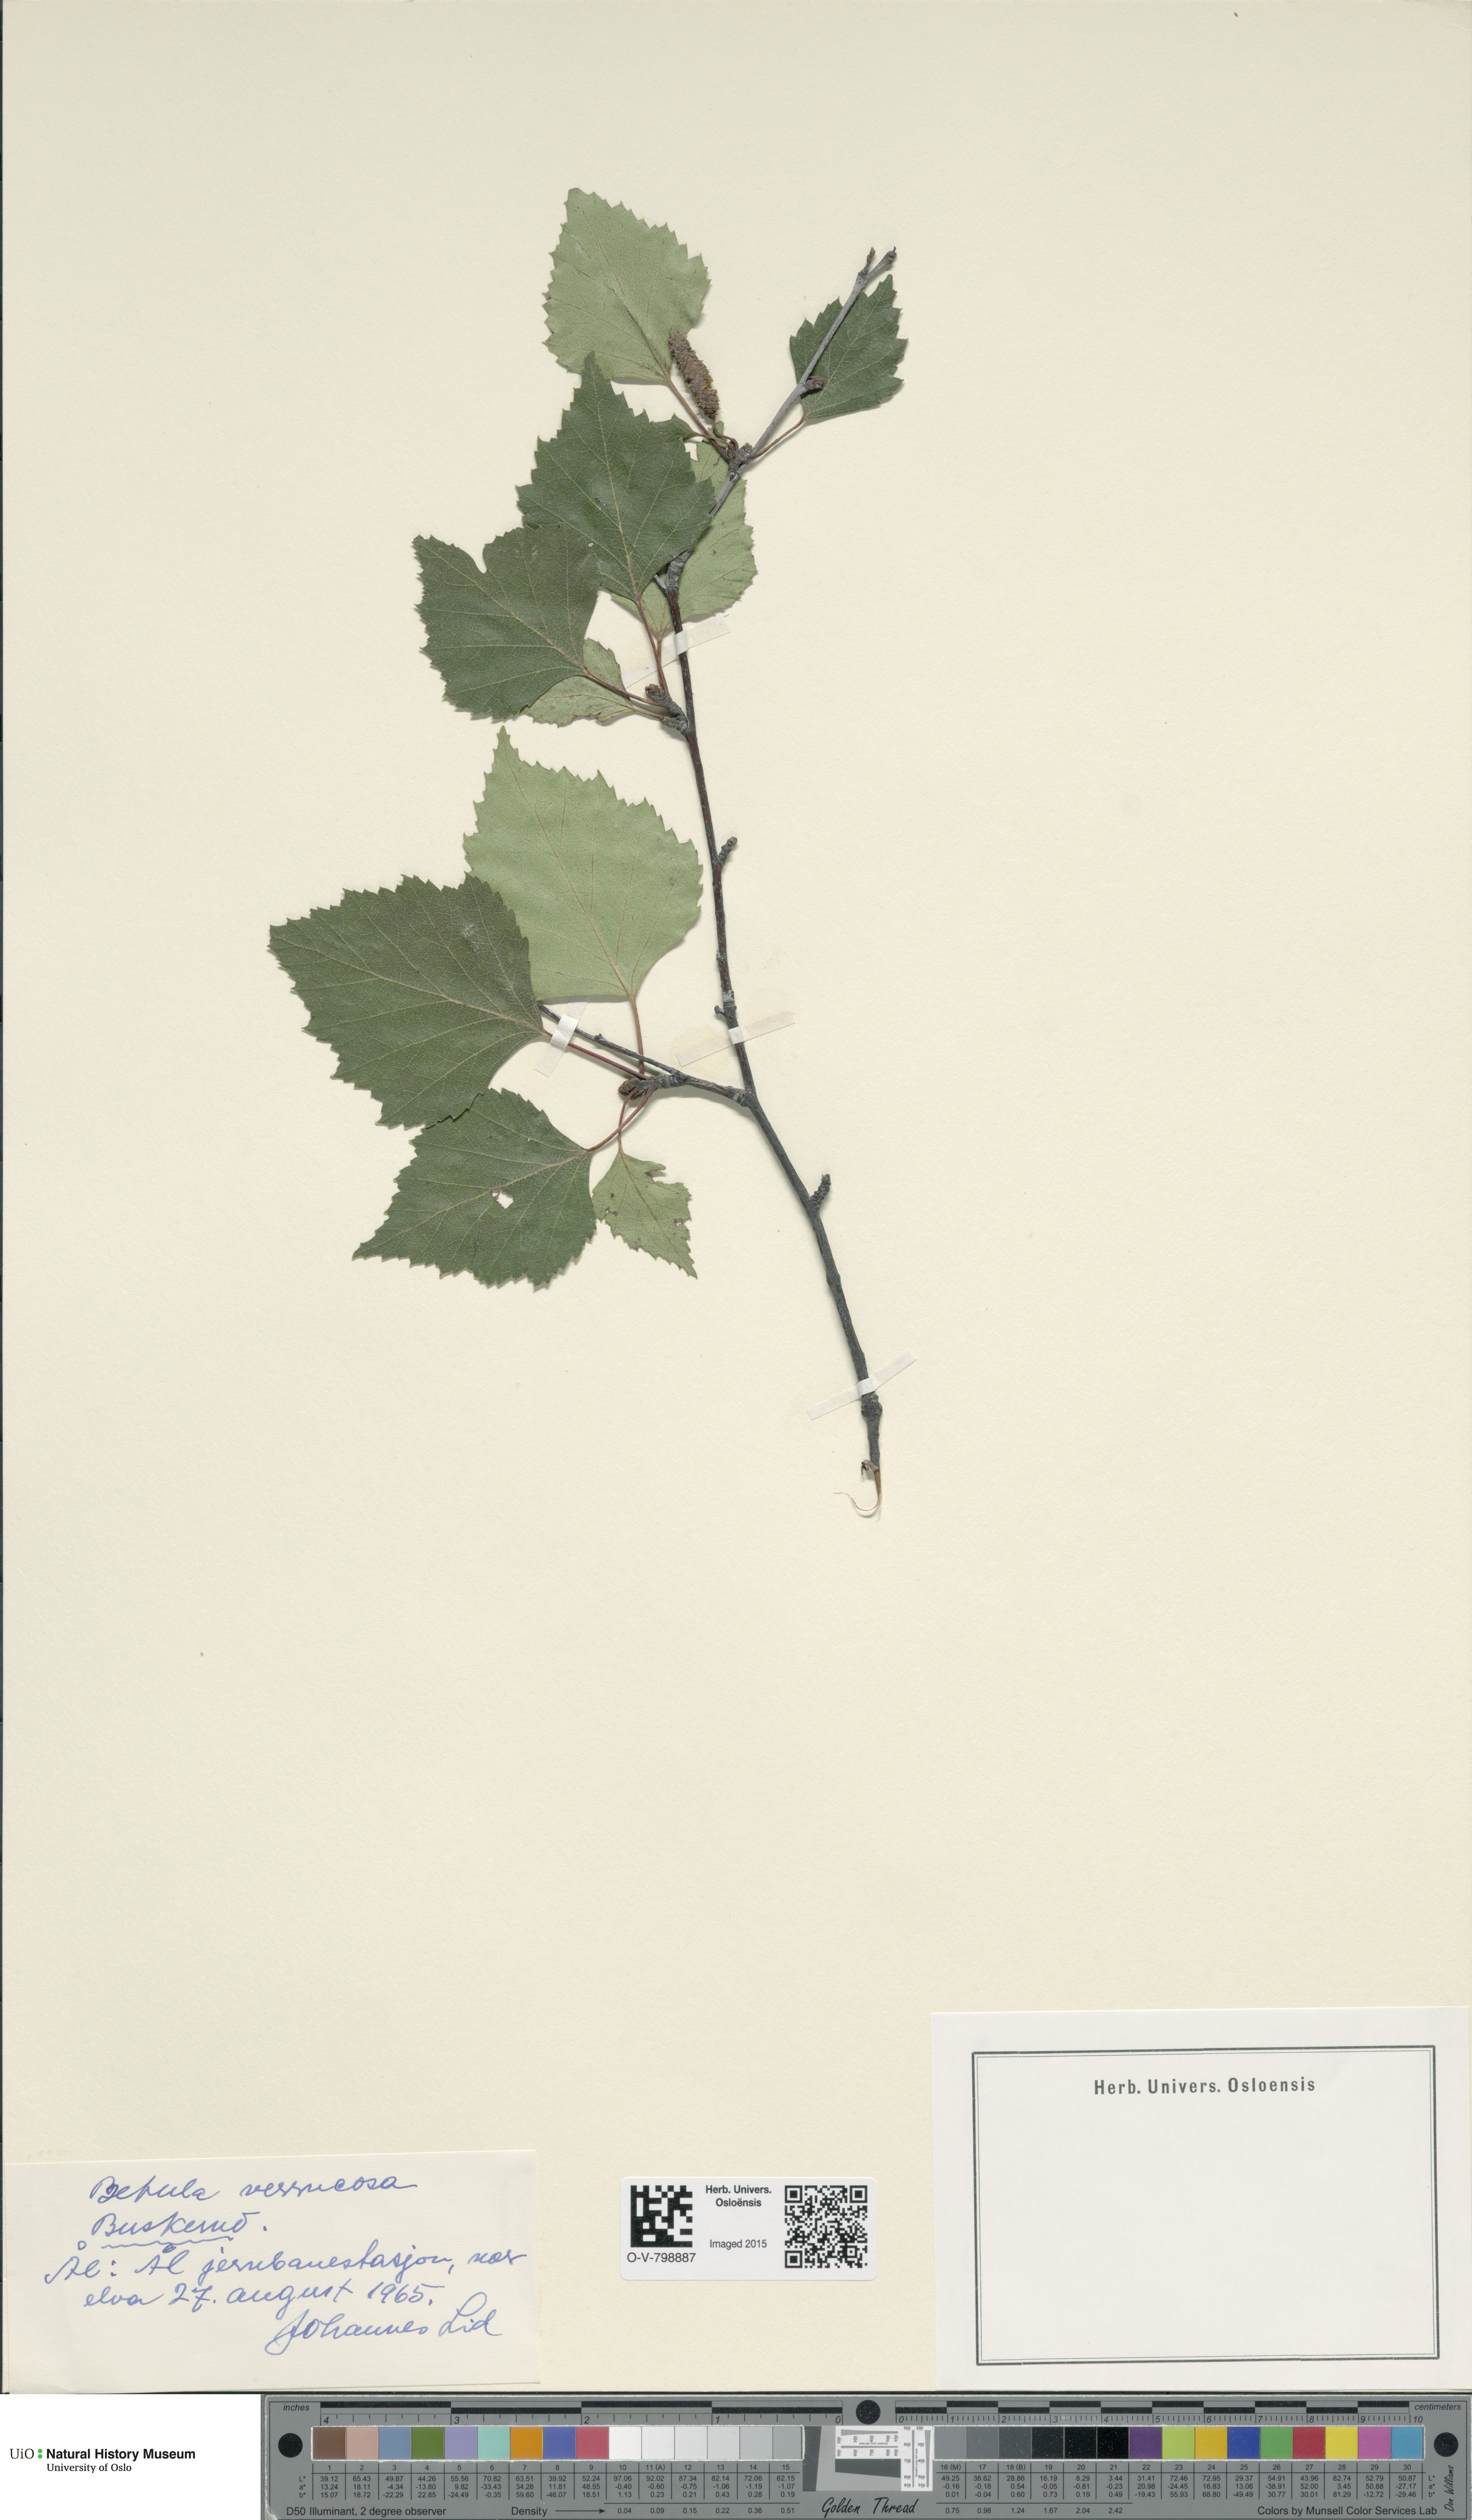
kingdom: Plantae
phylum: Tracheophyta
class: Magnoliopsida
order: Fagales
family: Betulaceae
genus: Betula
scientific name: Betula pendula
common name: Silver birch
